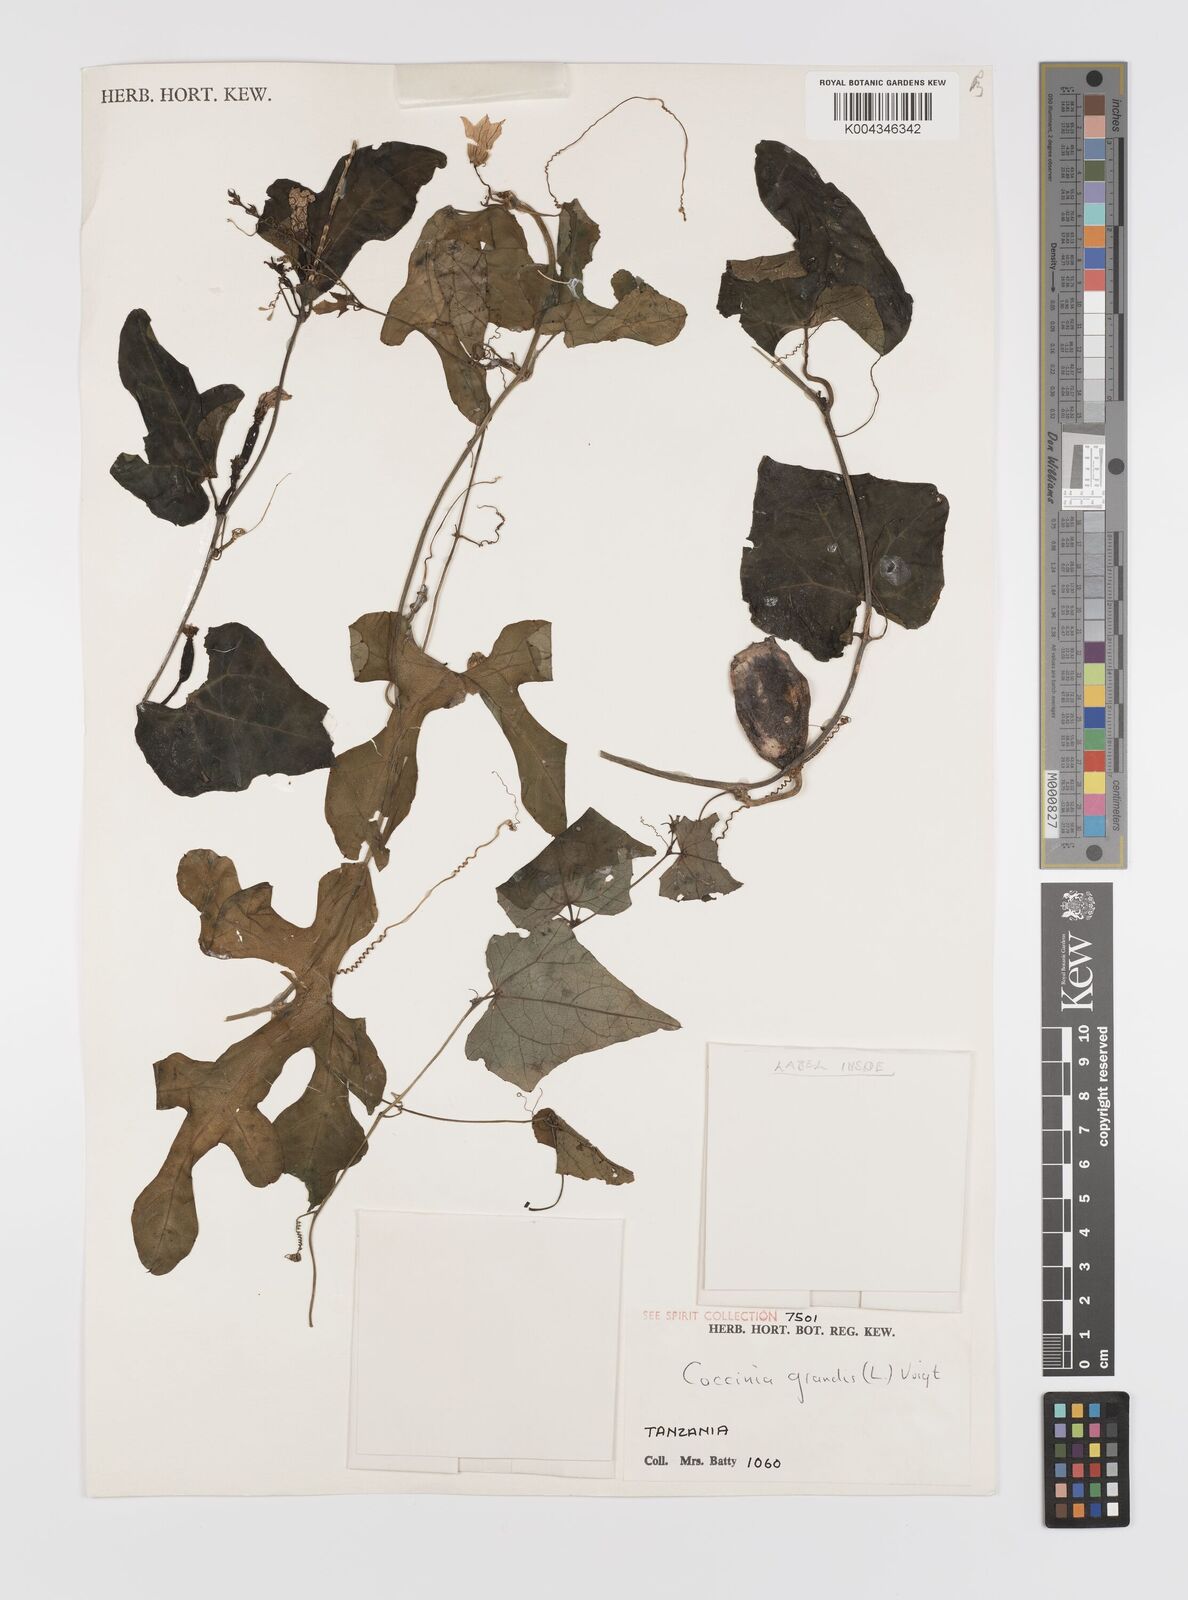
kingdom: Plantae
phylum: Tracheophyta
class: Magnoliopsida
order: Cucurbitales
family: Cucurbitaceae
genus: Coccinia
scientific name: Coccinia grandis
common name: Ivy gourd
